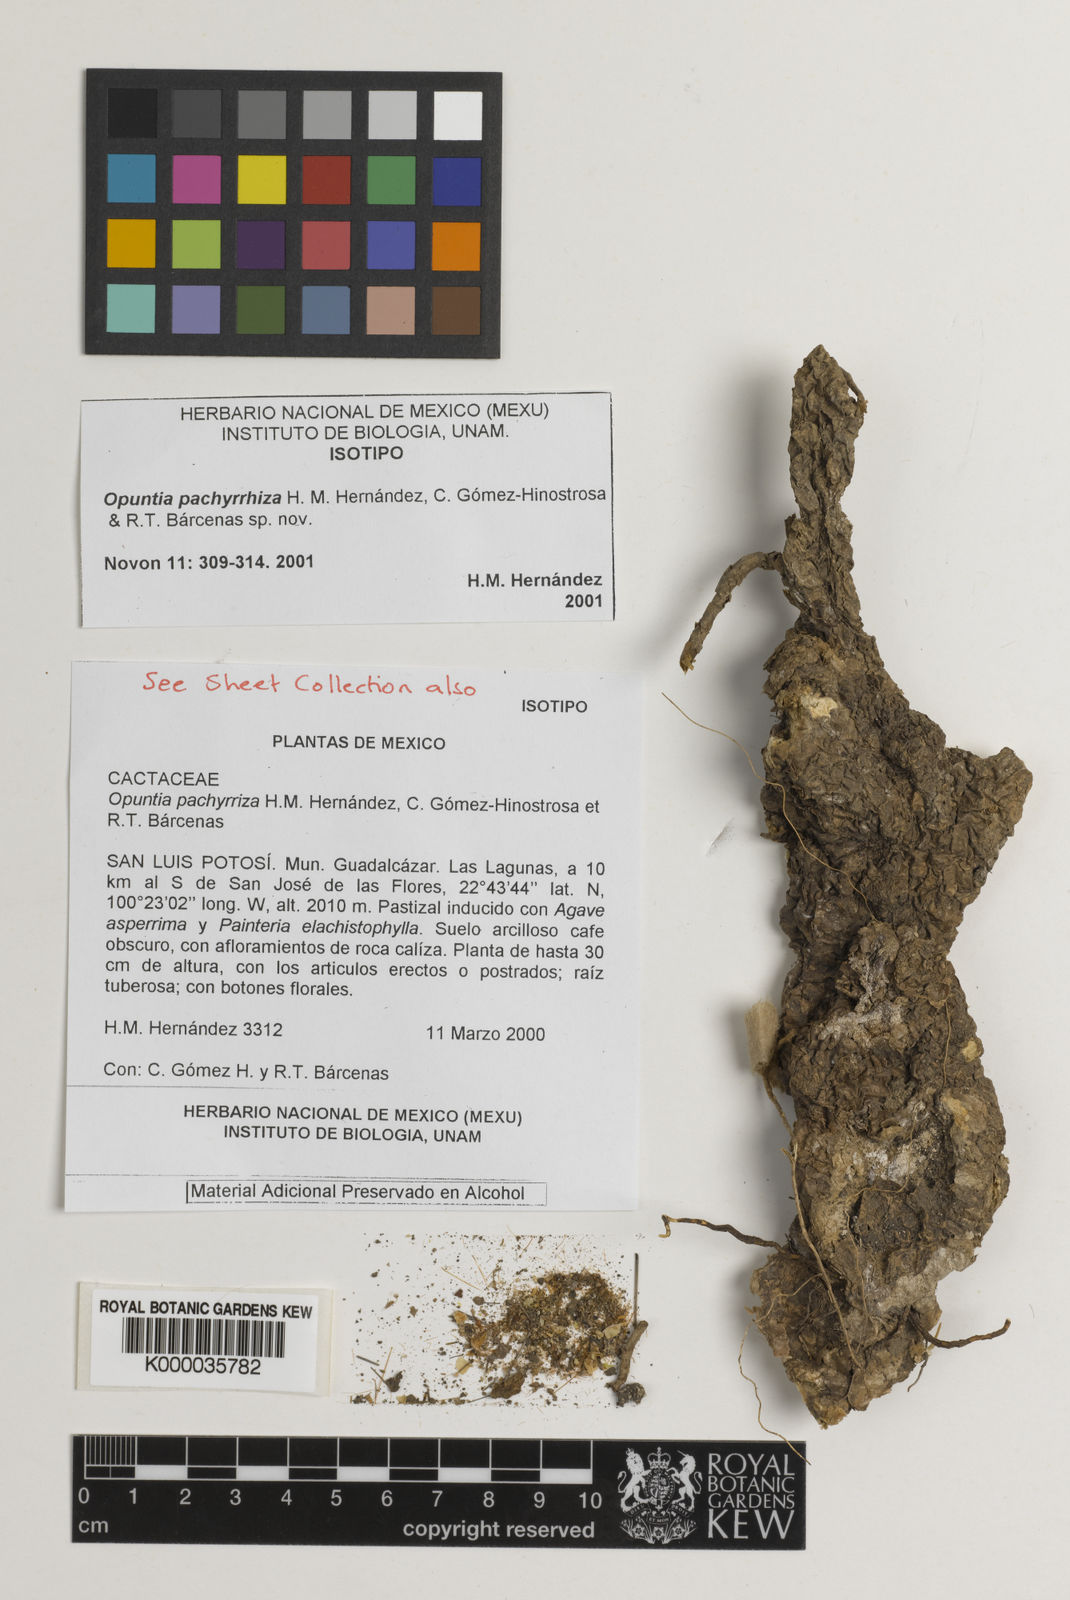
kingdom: Plantae
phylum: Tracheophyta
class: Magnoliopsida
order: Caryophyllales
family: Cactaceae
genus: Opuntia
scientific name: Opuntia
